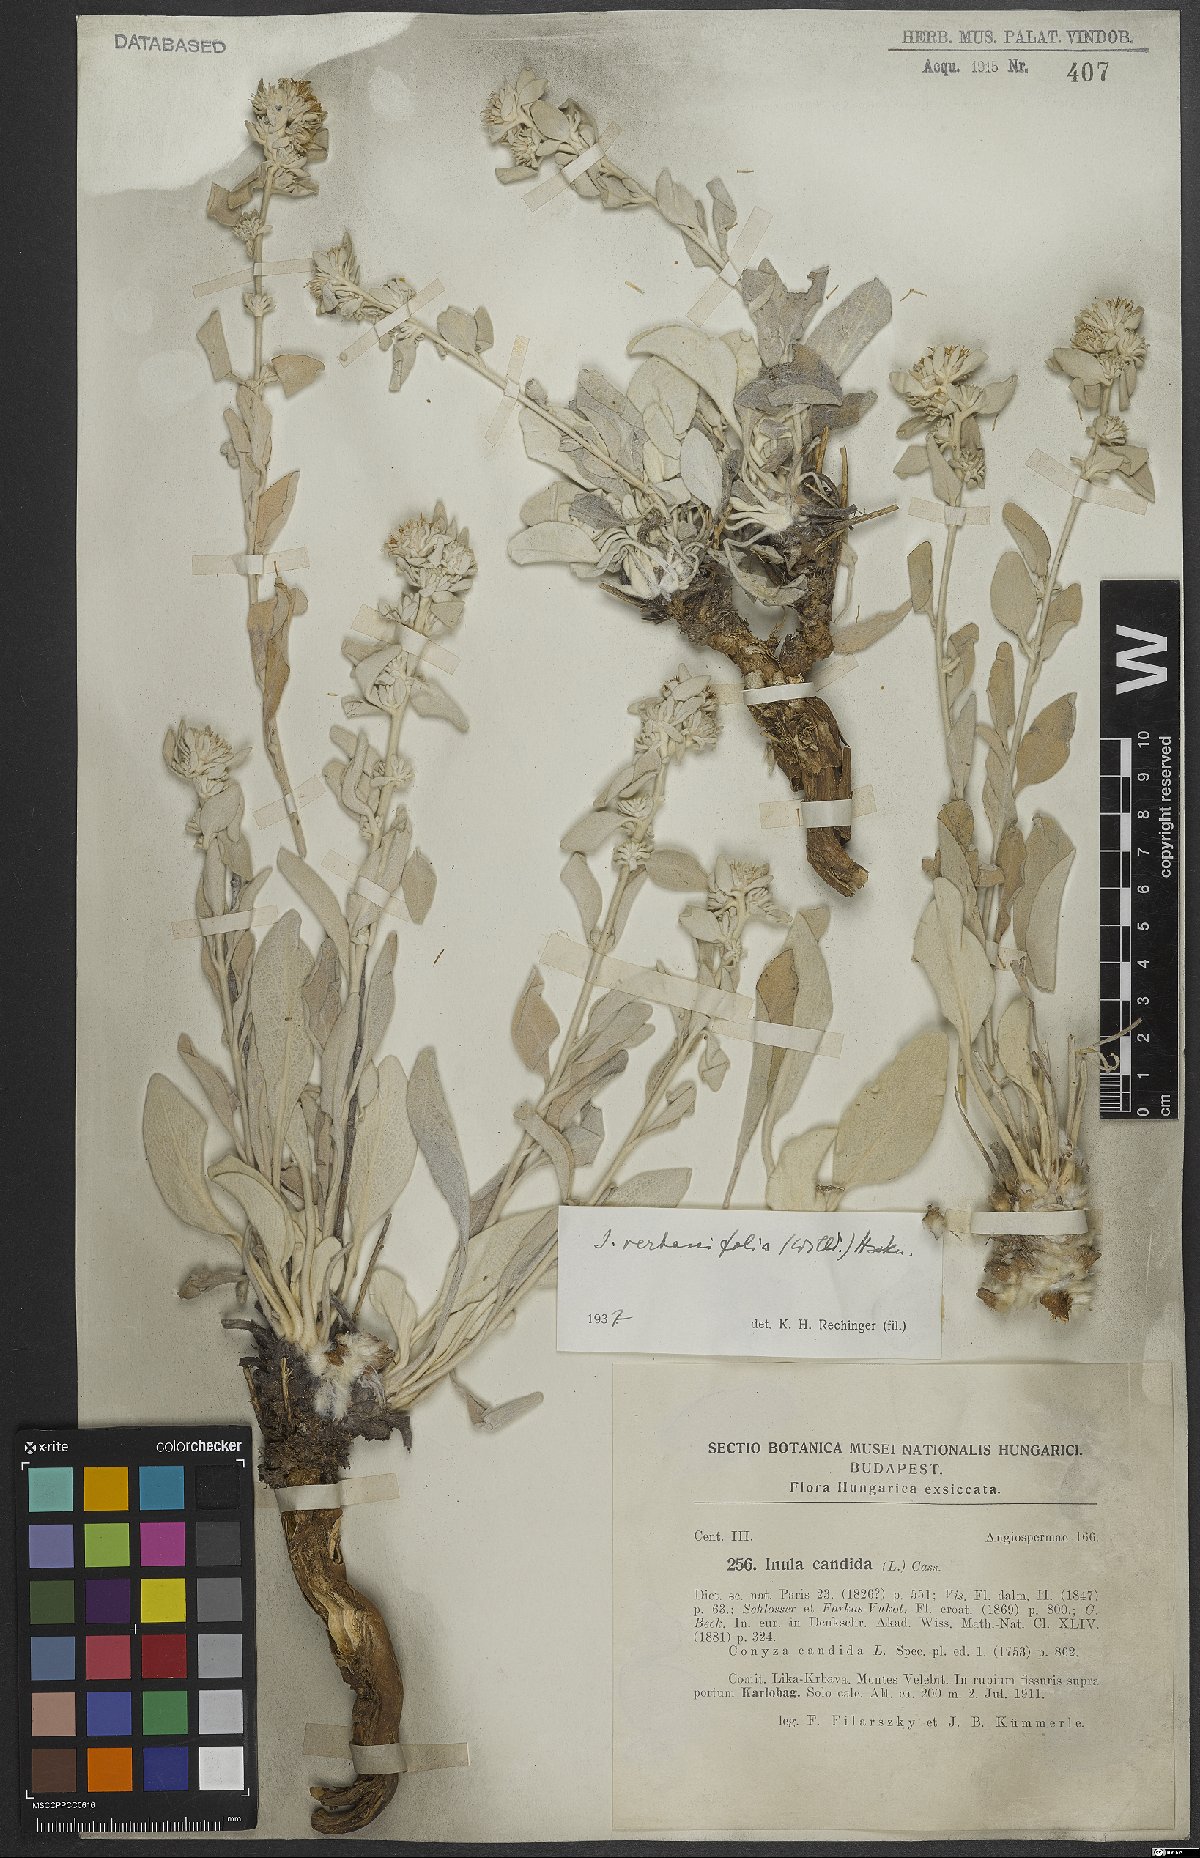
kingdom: Plantae
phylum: Tracheophyta
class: Magnoliopsida
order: Asterales
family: Asteraceae
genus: Pentanema
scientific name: Pentanema verbascifolium
